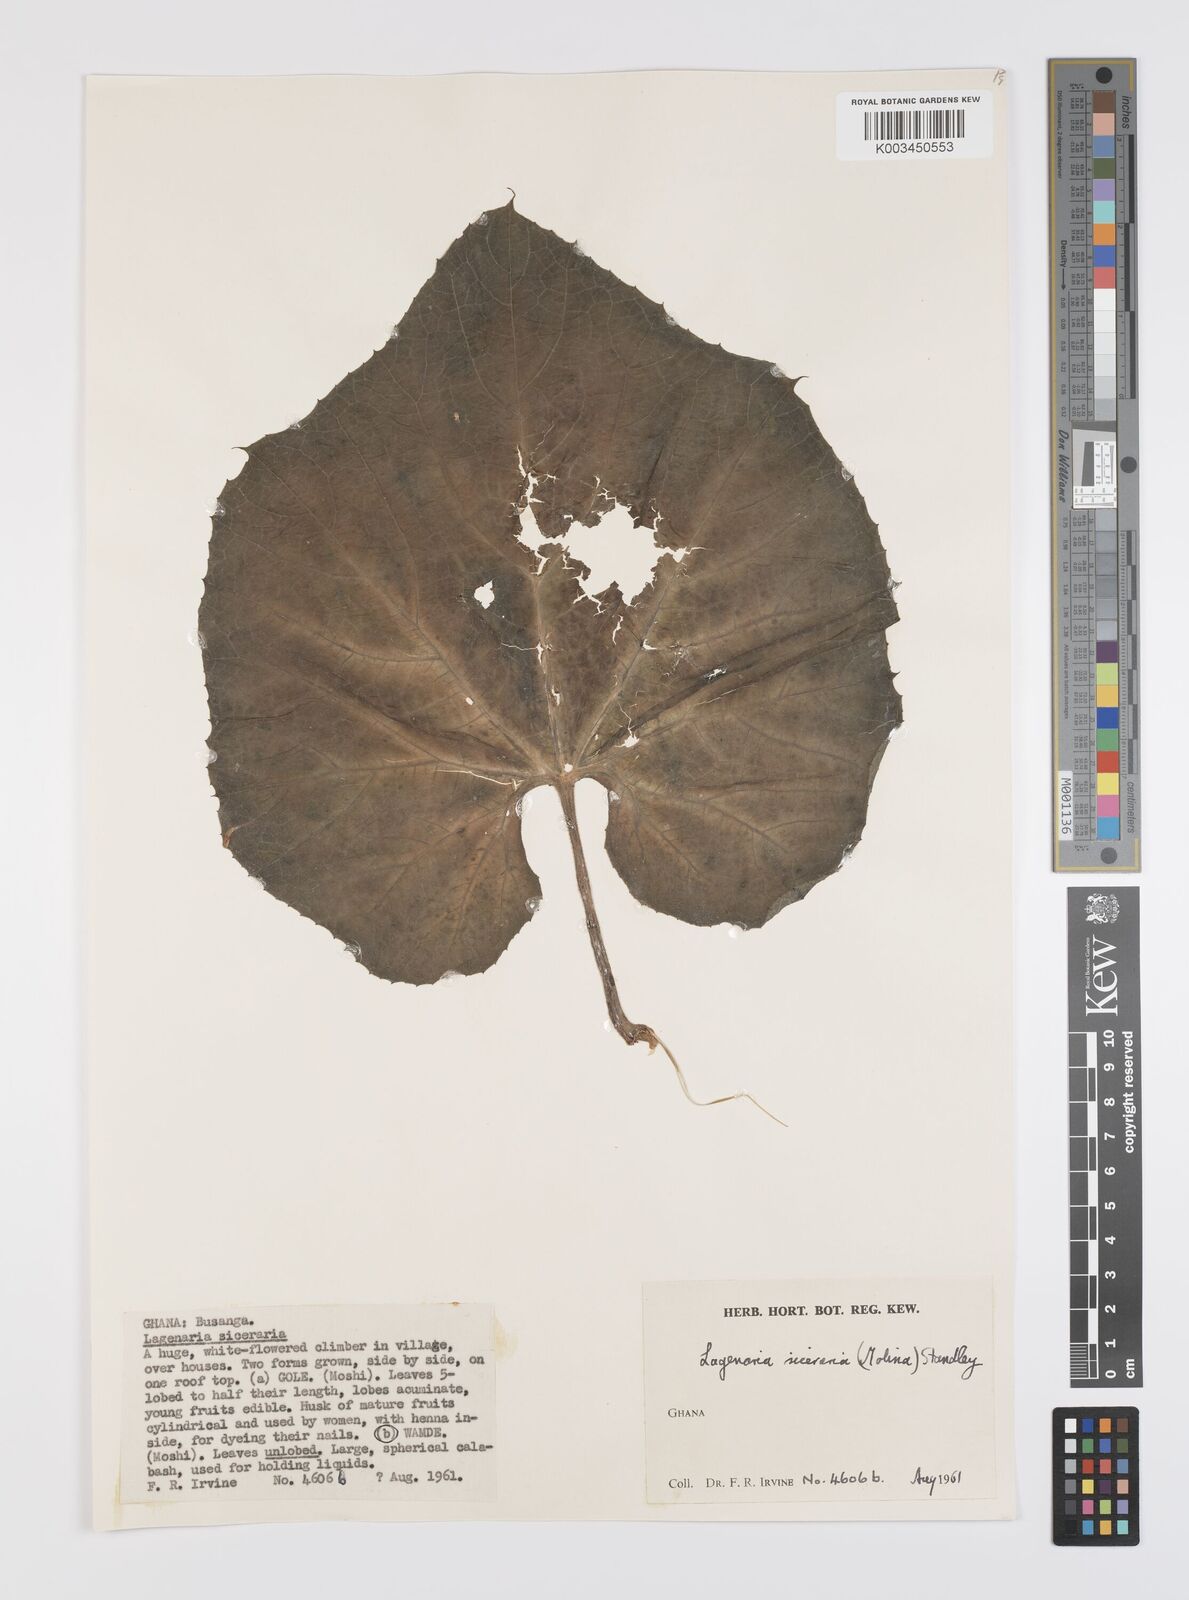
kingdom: Plantae
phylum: Tracheophyta
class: Magnoliopsida
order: Cucurbitales
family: Cucurbitaceae
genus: Lagenaria
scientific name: Lagenaria siceraria
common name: Bottle gourd
